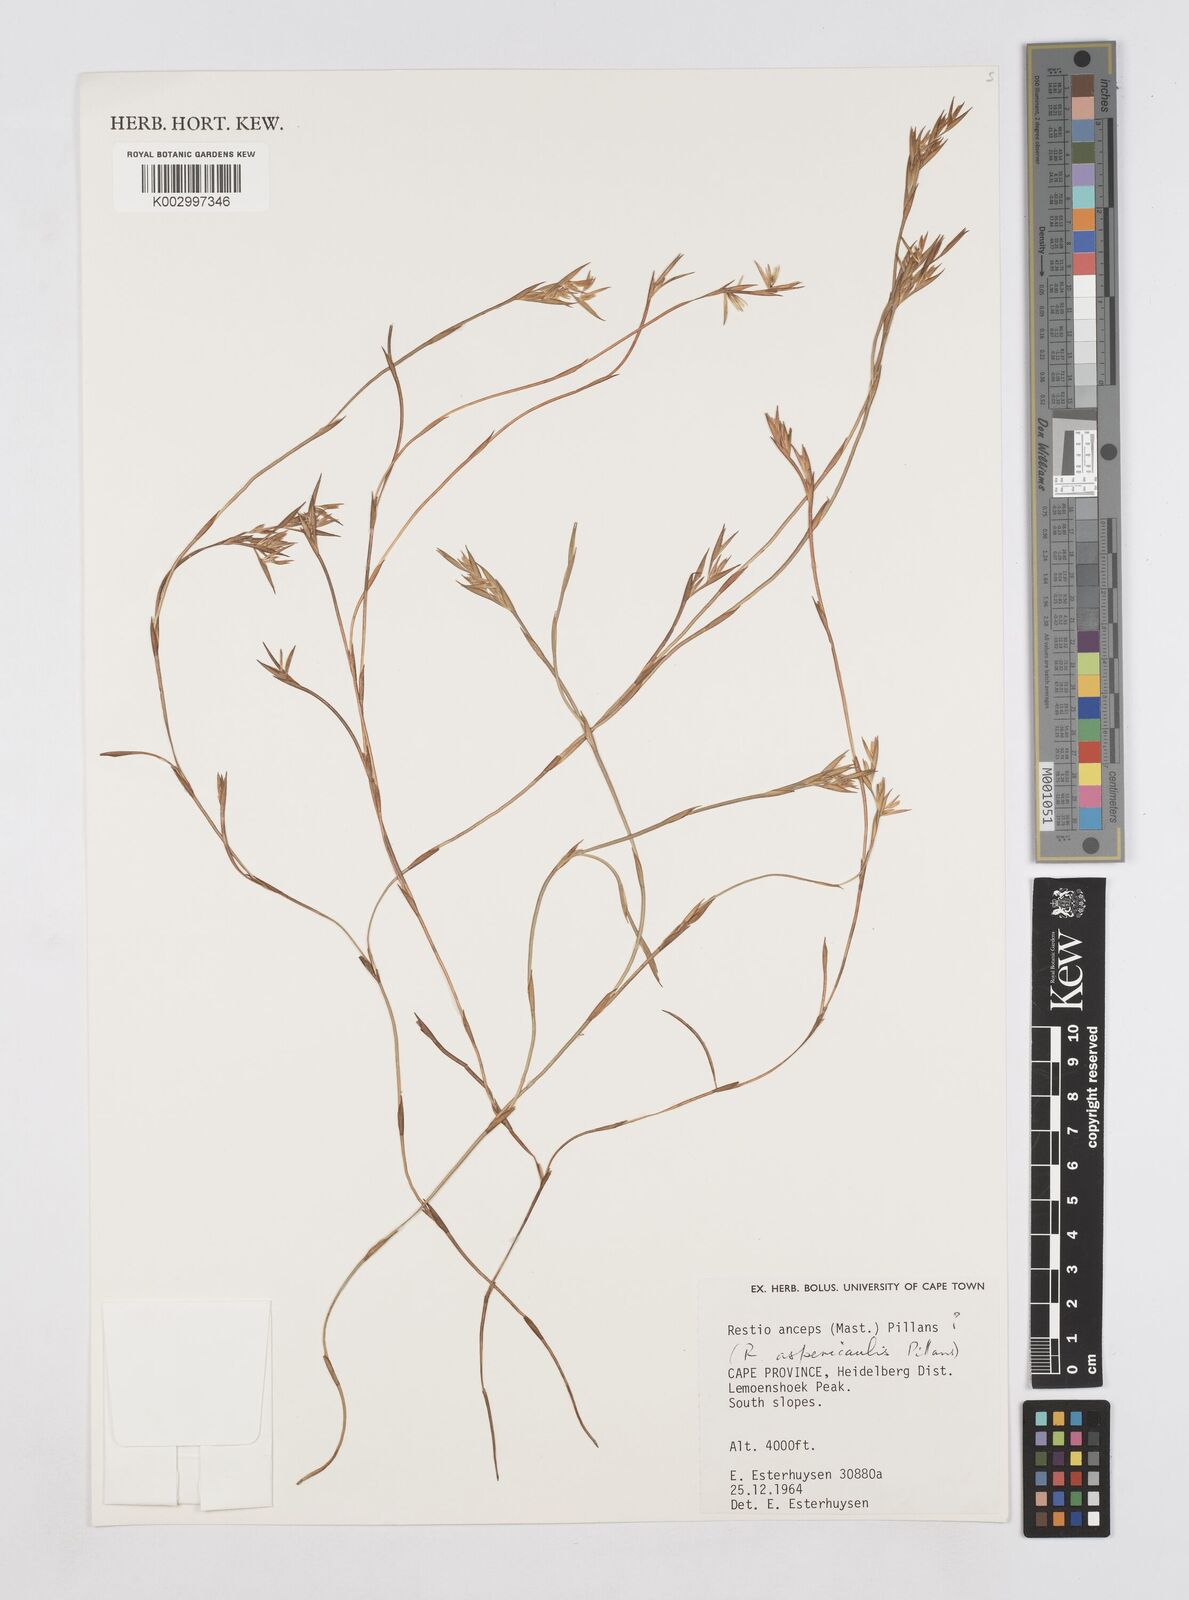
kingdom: Plantae
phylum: Tracheophyta
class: Liliopsida
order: Poales
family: Restionaceae
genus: Platycaulos
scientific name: Platycaulos
